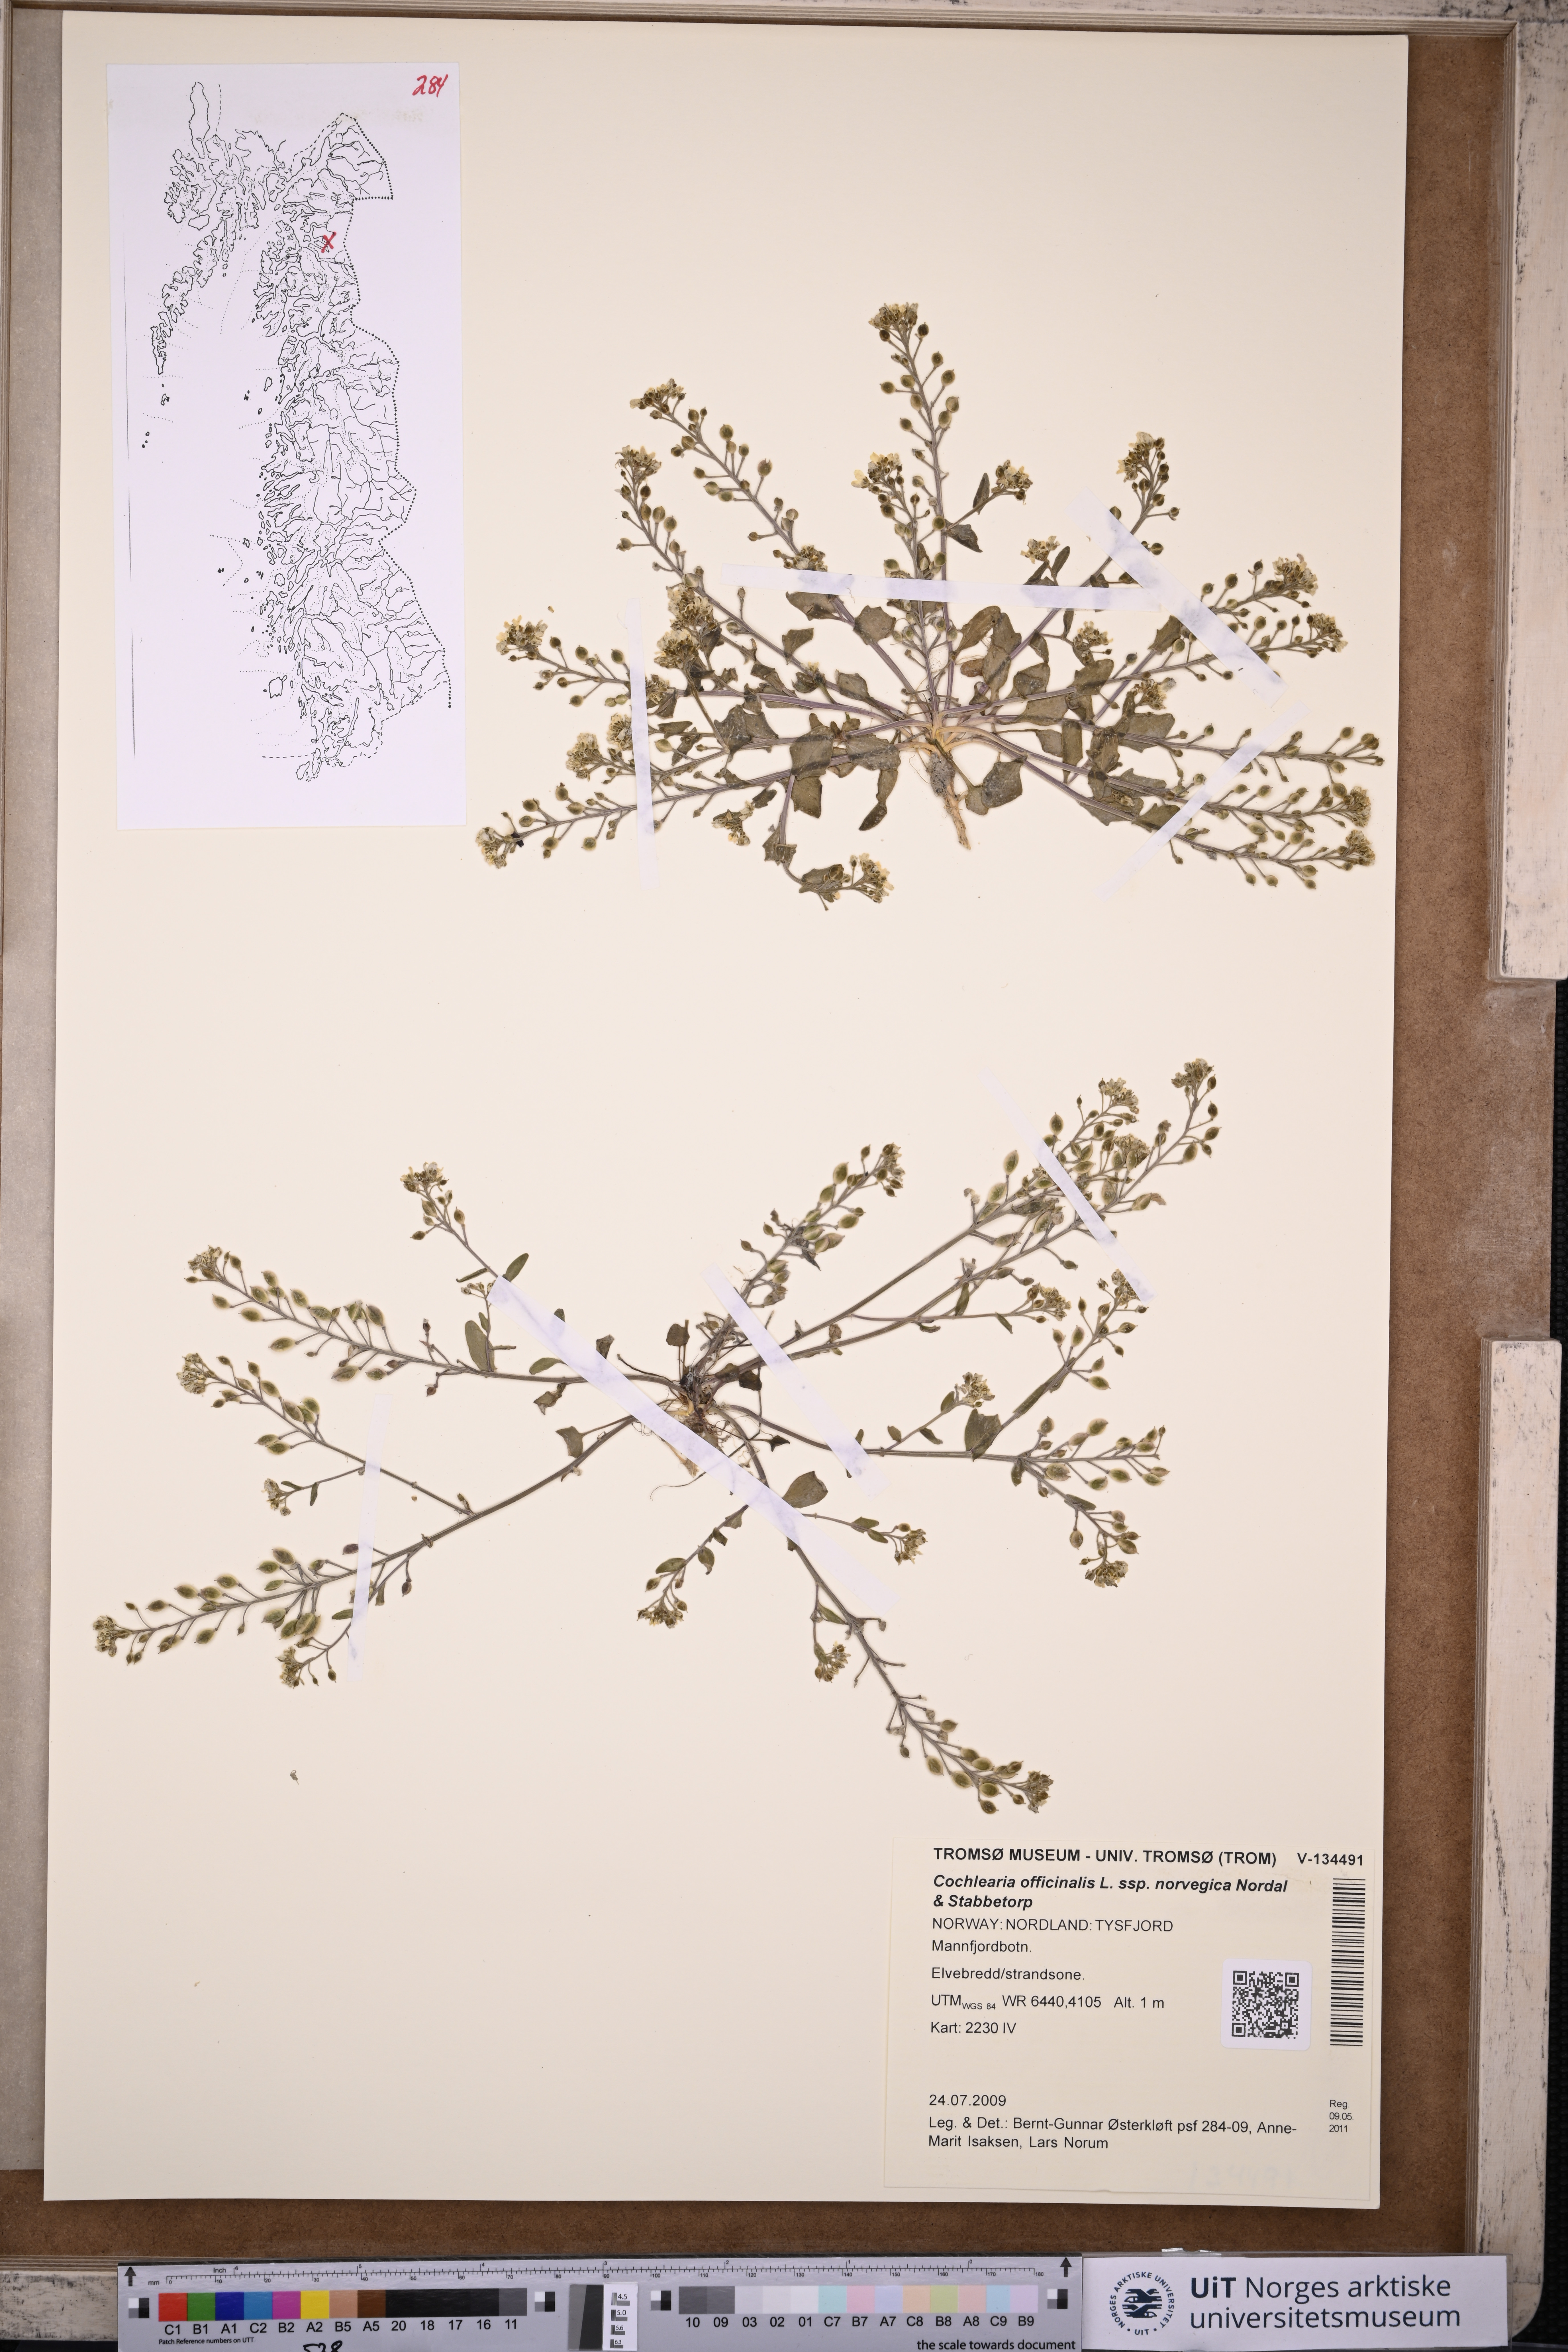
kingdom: Plantae
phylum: Tracheophyta
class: Magnoliopsida
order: Brassicales
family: Brassicaceae
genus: Cochlearia
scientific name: Cochlearia officinalis
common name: Scurvy-grass
